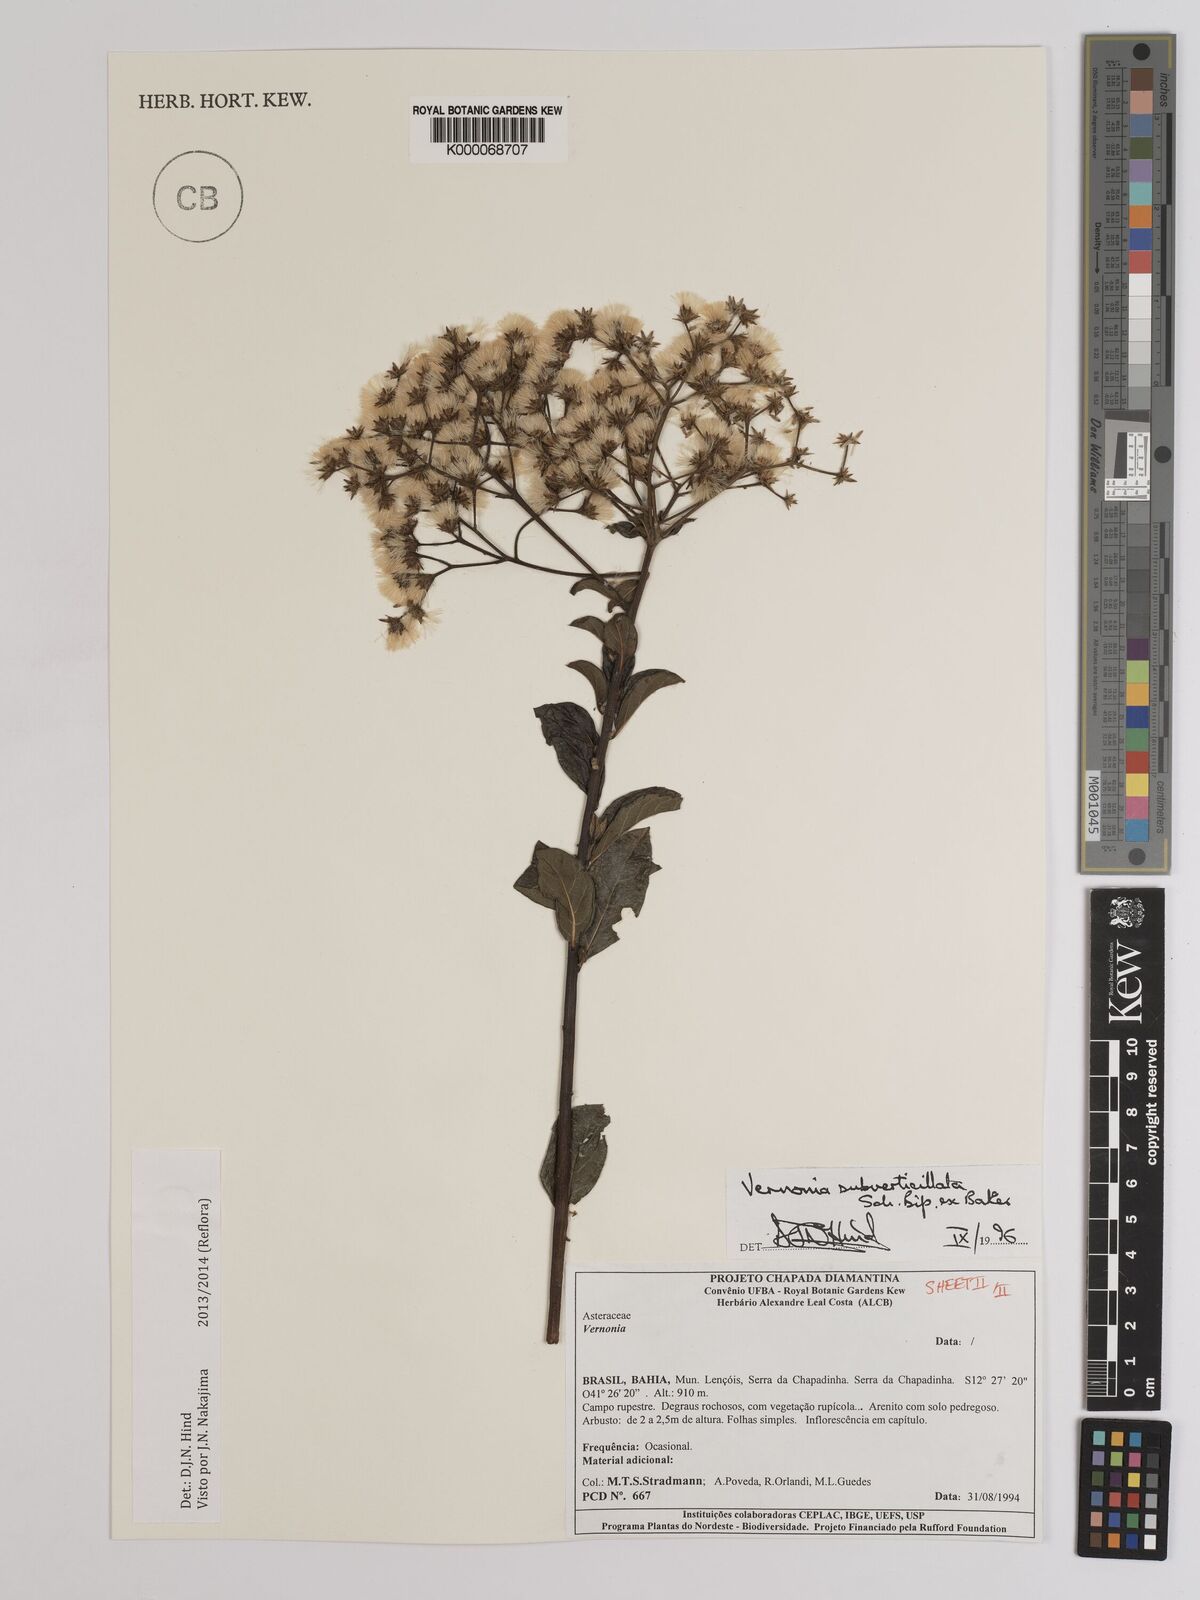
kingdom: Plantae
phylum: Tracheophyta
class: Magnoliopsida
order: Asterales
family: Asteraceae
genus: Vernonia
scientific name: Vernonia
